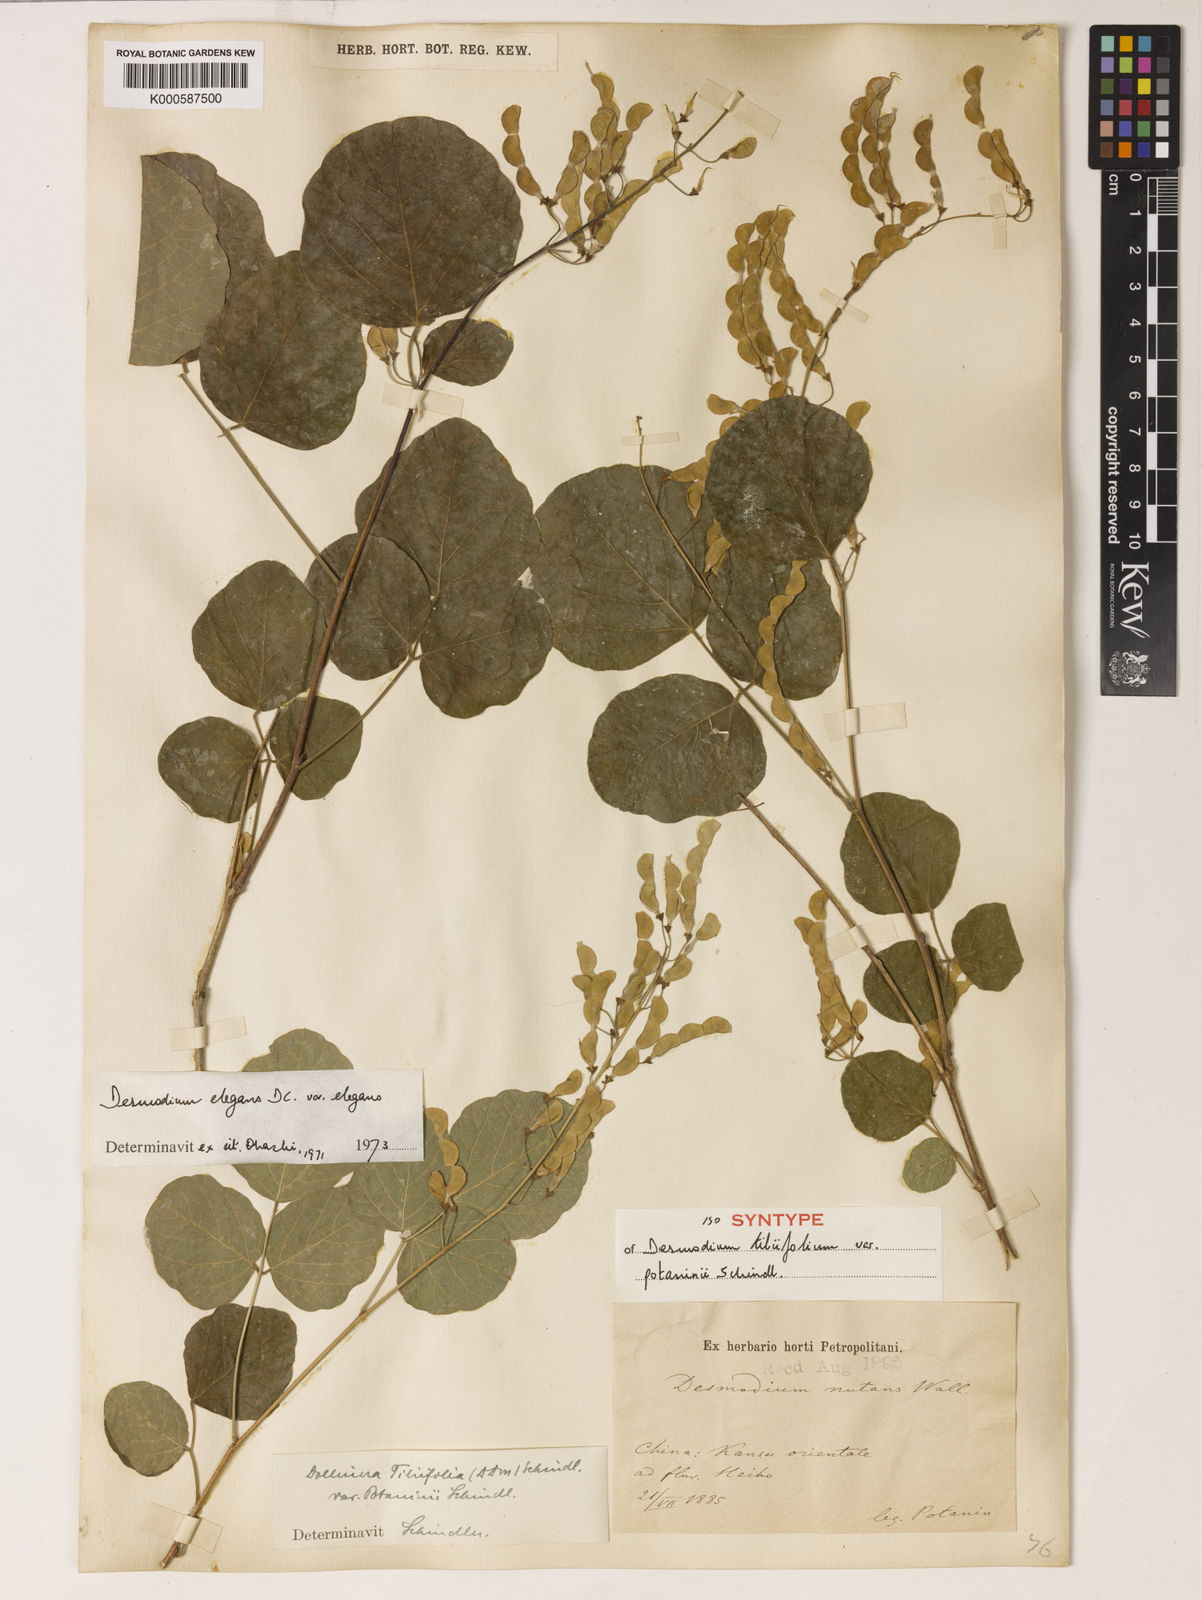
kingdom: Plantae
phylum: Tracheophyta
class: Magnoliopsida
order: Fabales
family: Fabaceae
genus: Sunhangia
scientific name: Sunhangia elegans
